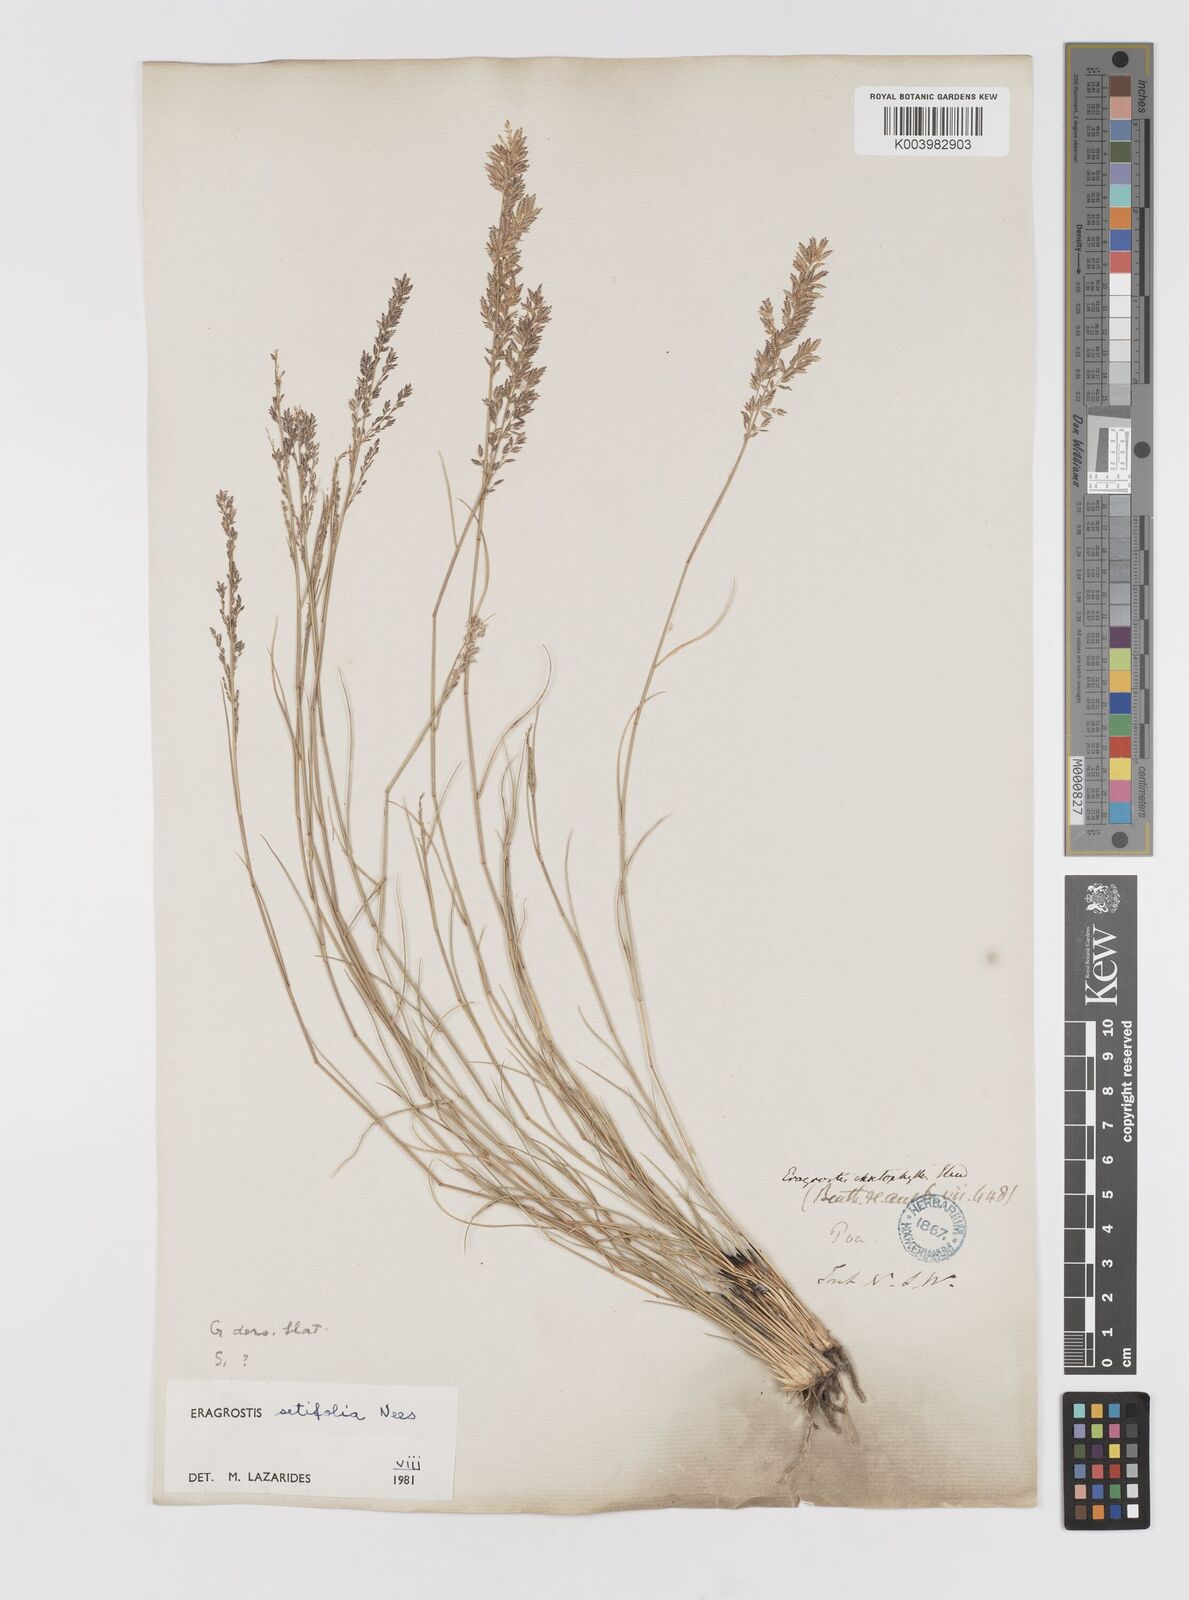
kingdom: Plantae
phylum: Tracheophyta
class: Liliopsida
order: Poales
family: Poaceae
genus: Eragrostis
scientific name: Eragrostis setifolia
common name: Bristleleaf lovegrass
